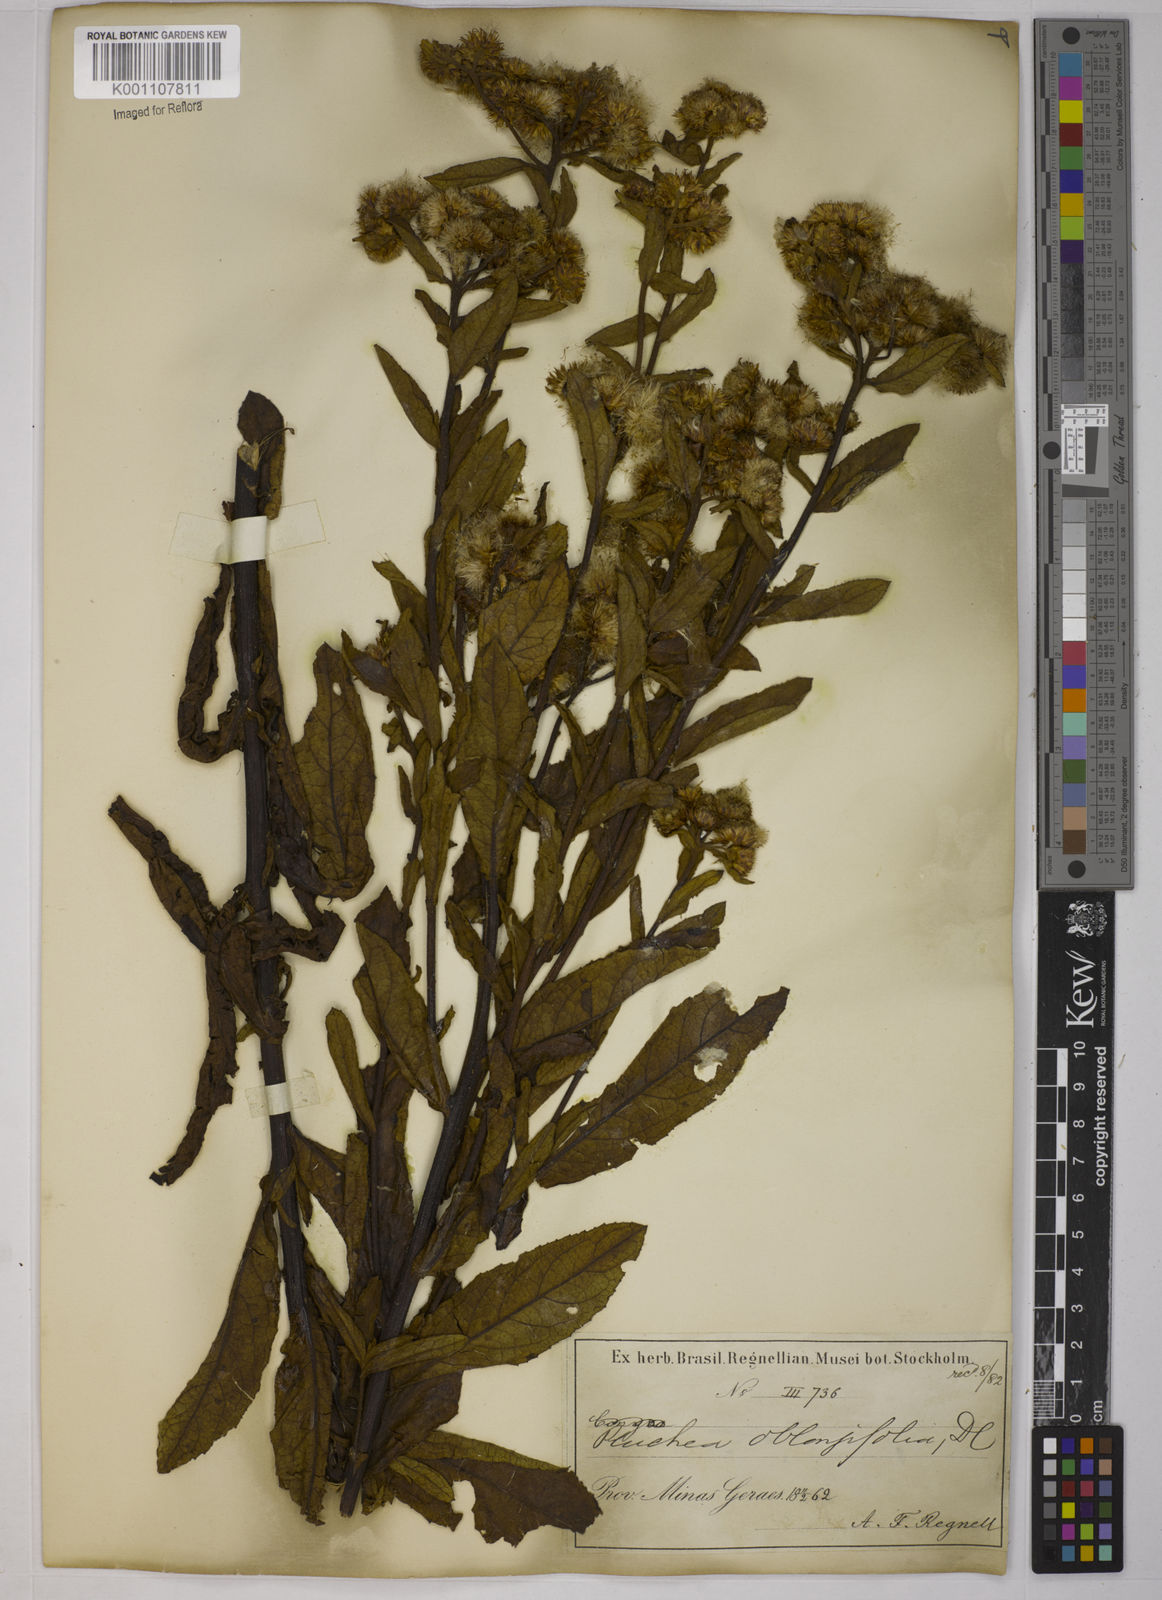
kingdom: Plantae
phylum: Tracheophyta
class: Magnoliopsida
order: Asterales
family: Asteraceae
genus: Pluchea
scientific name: Pluchea oblongifolia
